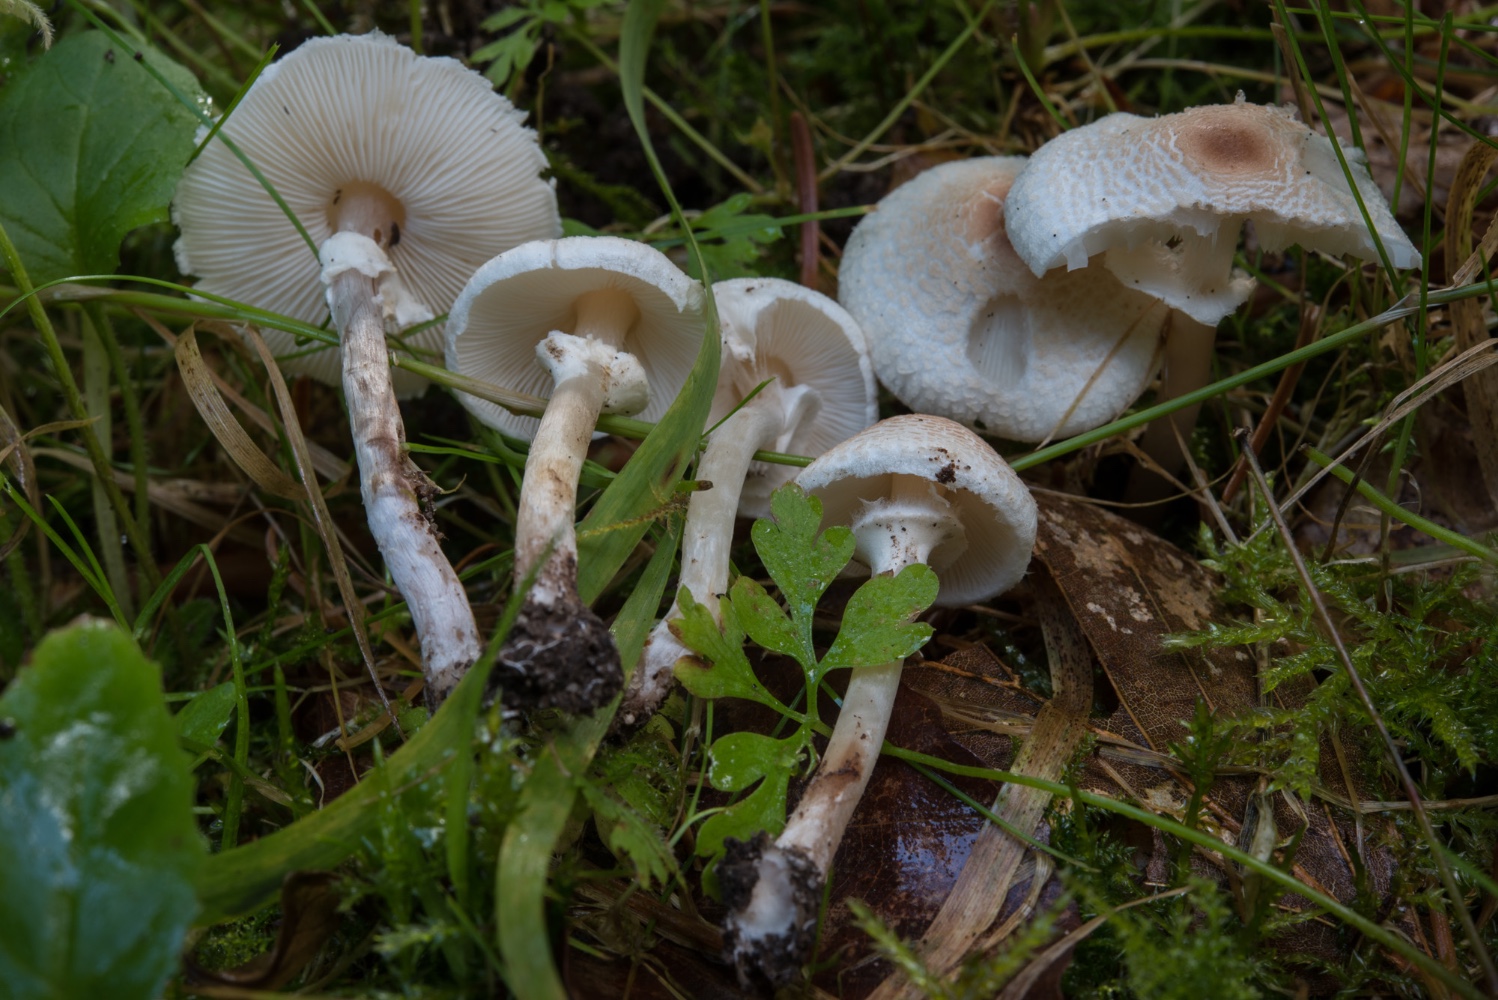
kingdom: Fungi
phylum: Basidiomycota
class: Agaricomycetes
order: Agaricales
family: Agaricaceae
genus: Lepiota
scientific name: Lepiota cristata
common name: stinkende parasolhat
